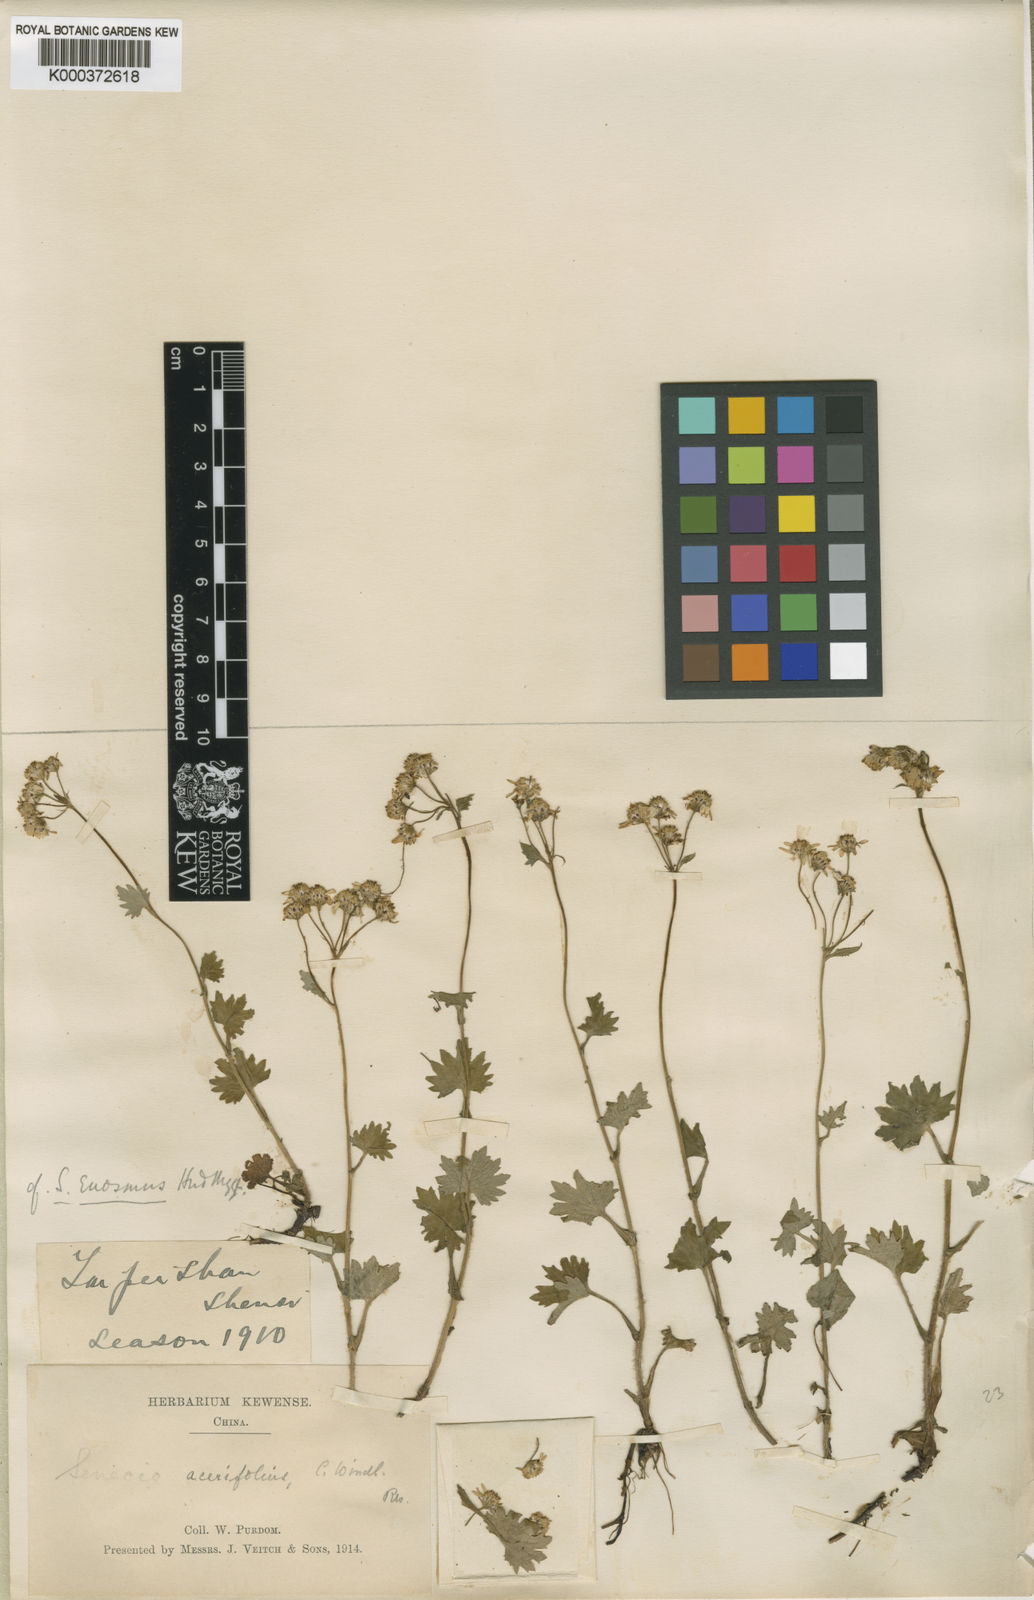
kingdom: Plantae
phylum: Tracheophyta
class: Magnoliopsida
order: Asterales
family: Asteraceae
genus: Sinosenecio
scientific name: Sinosenecio euosmus
